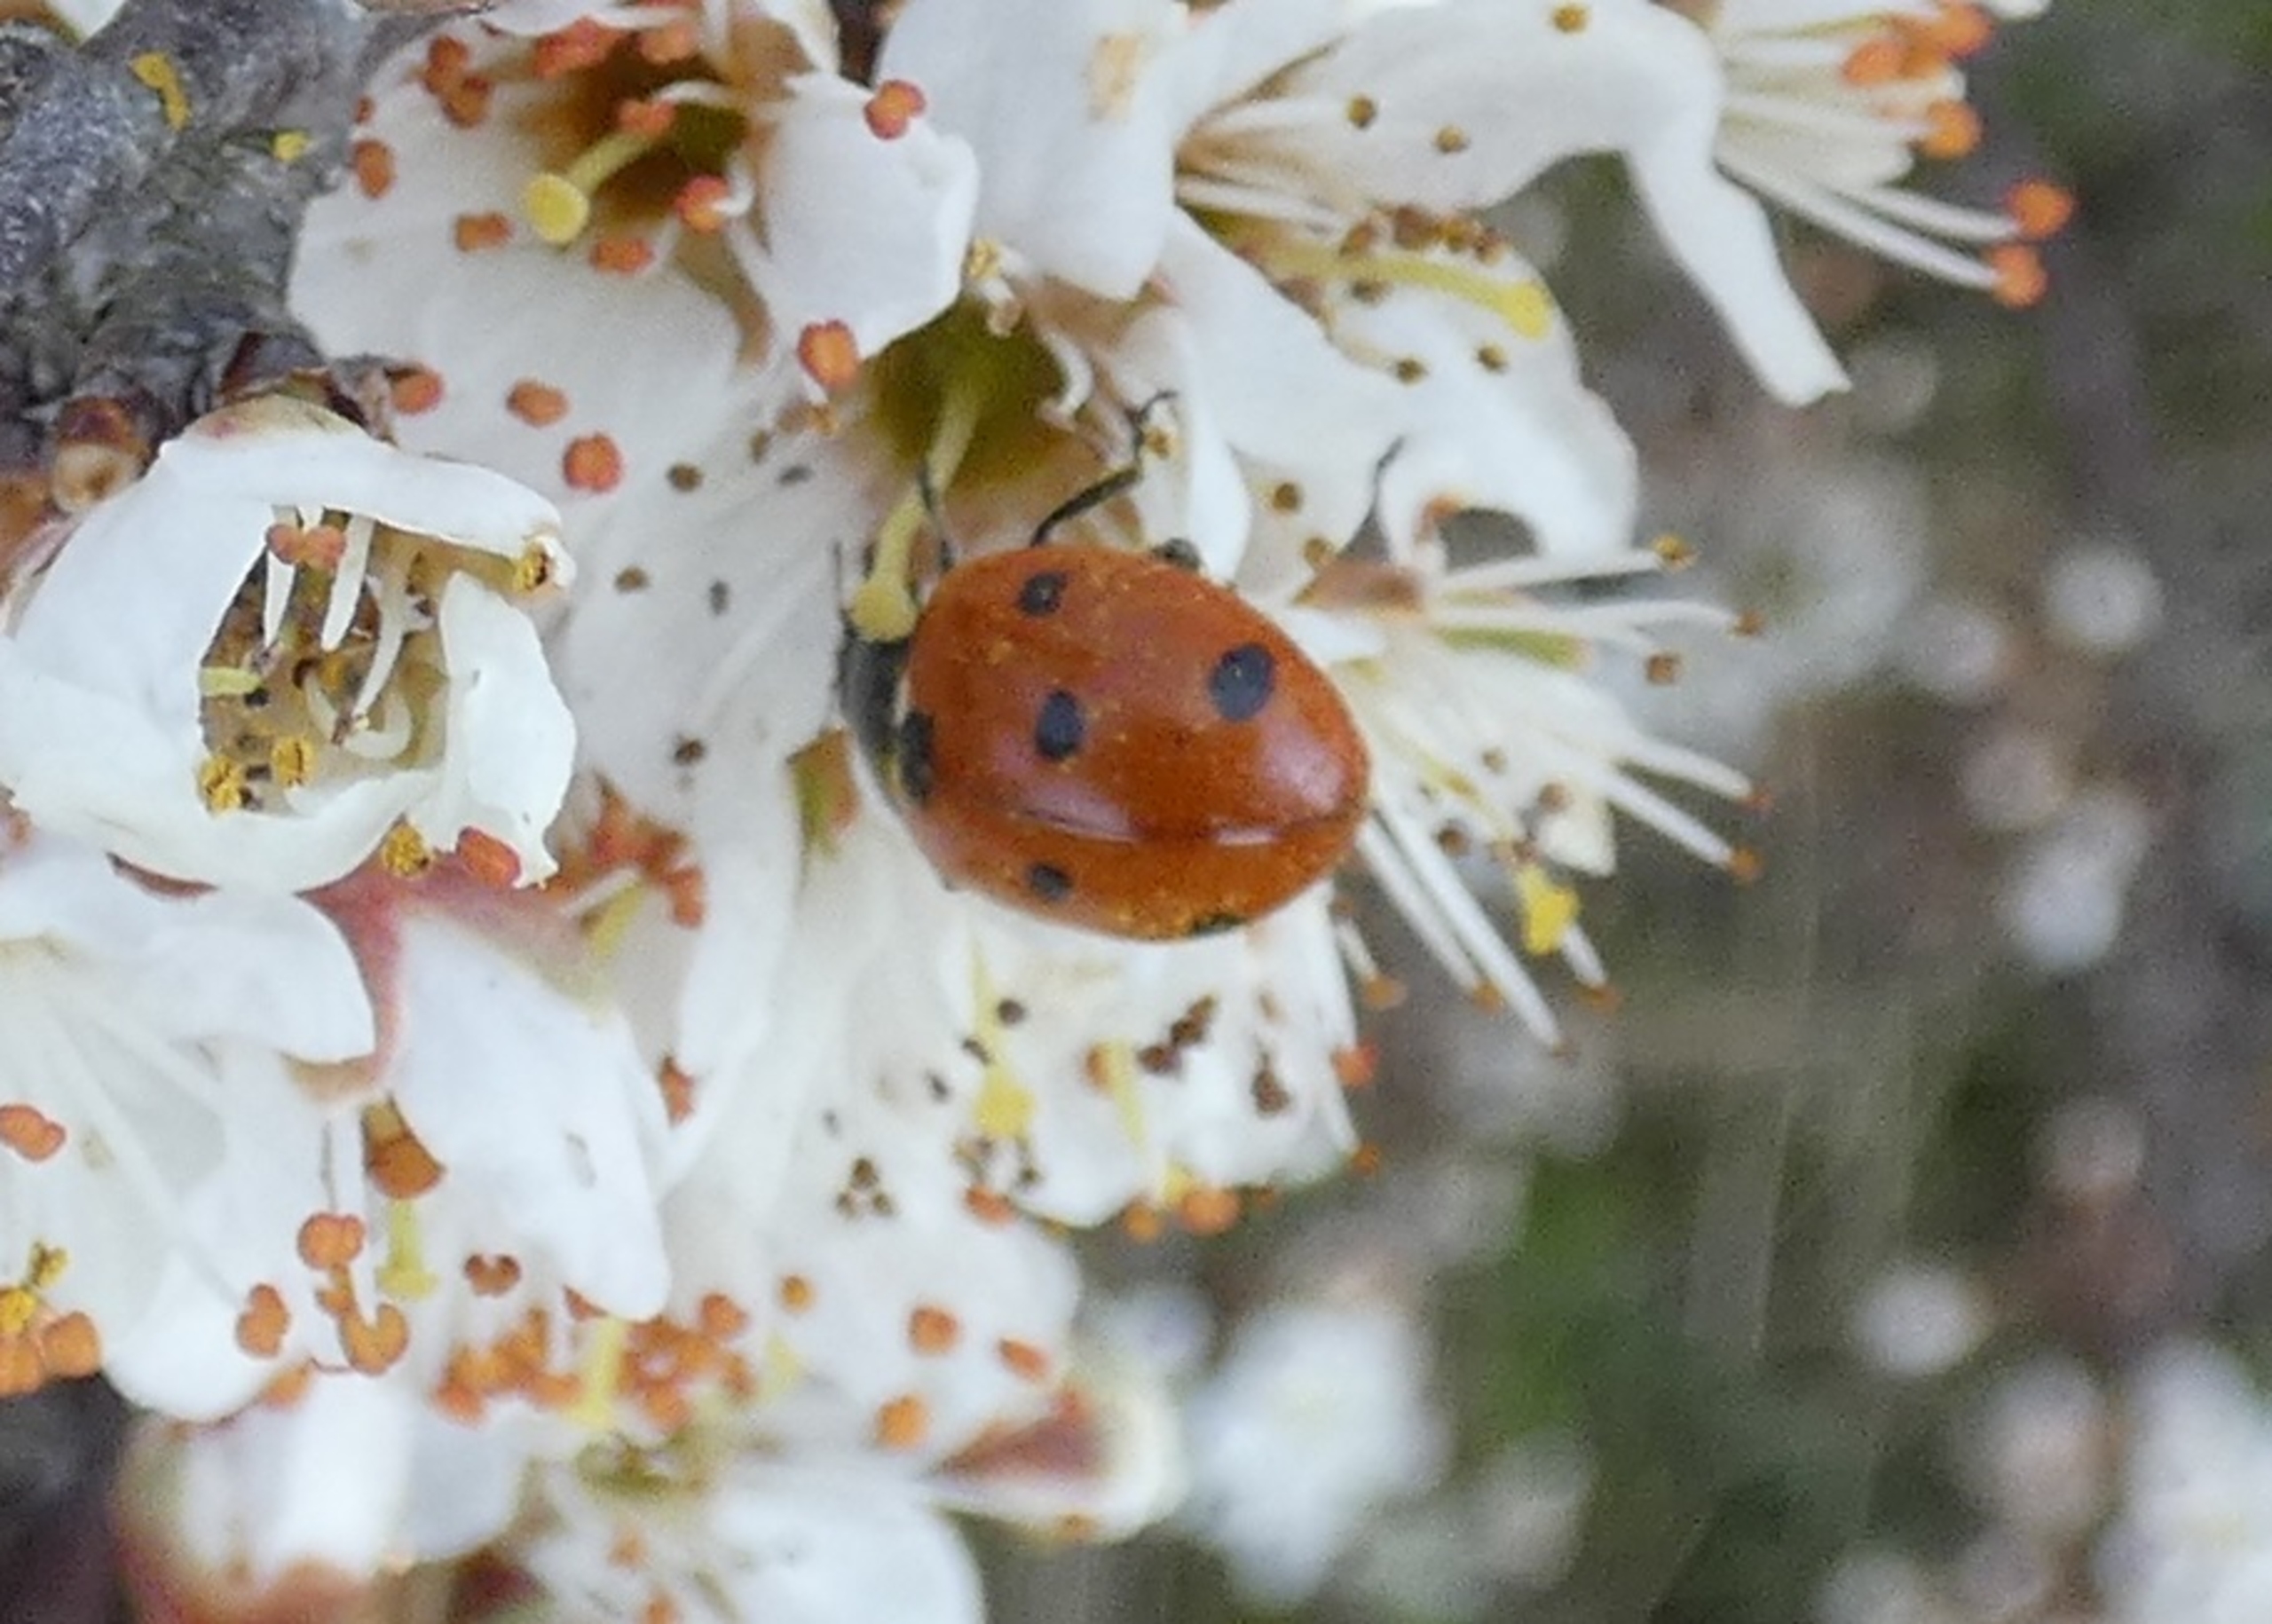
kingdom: Animalia
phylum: Arthropoda
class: Insecta
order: Coleoptera
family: Coccinellidae
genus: Coccinella
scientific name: Coccinella septempunctata
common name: Syvplettet mariehøne
